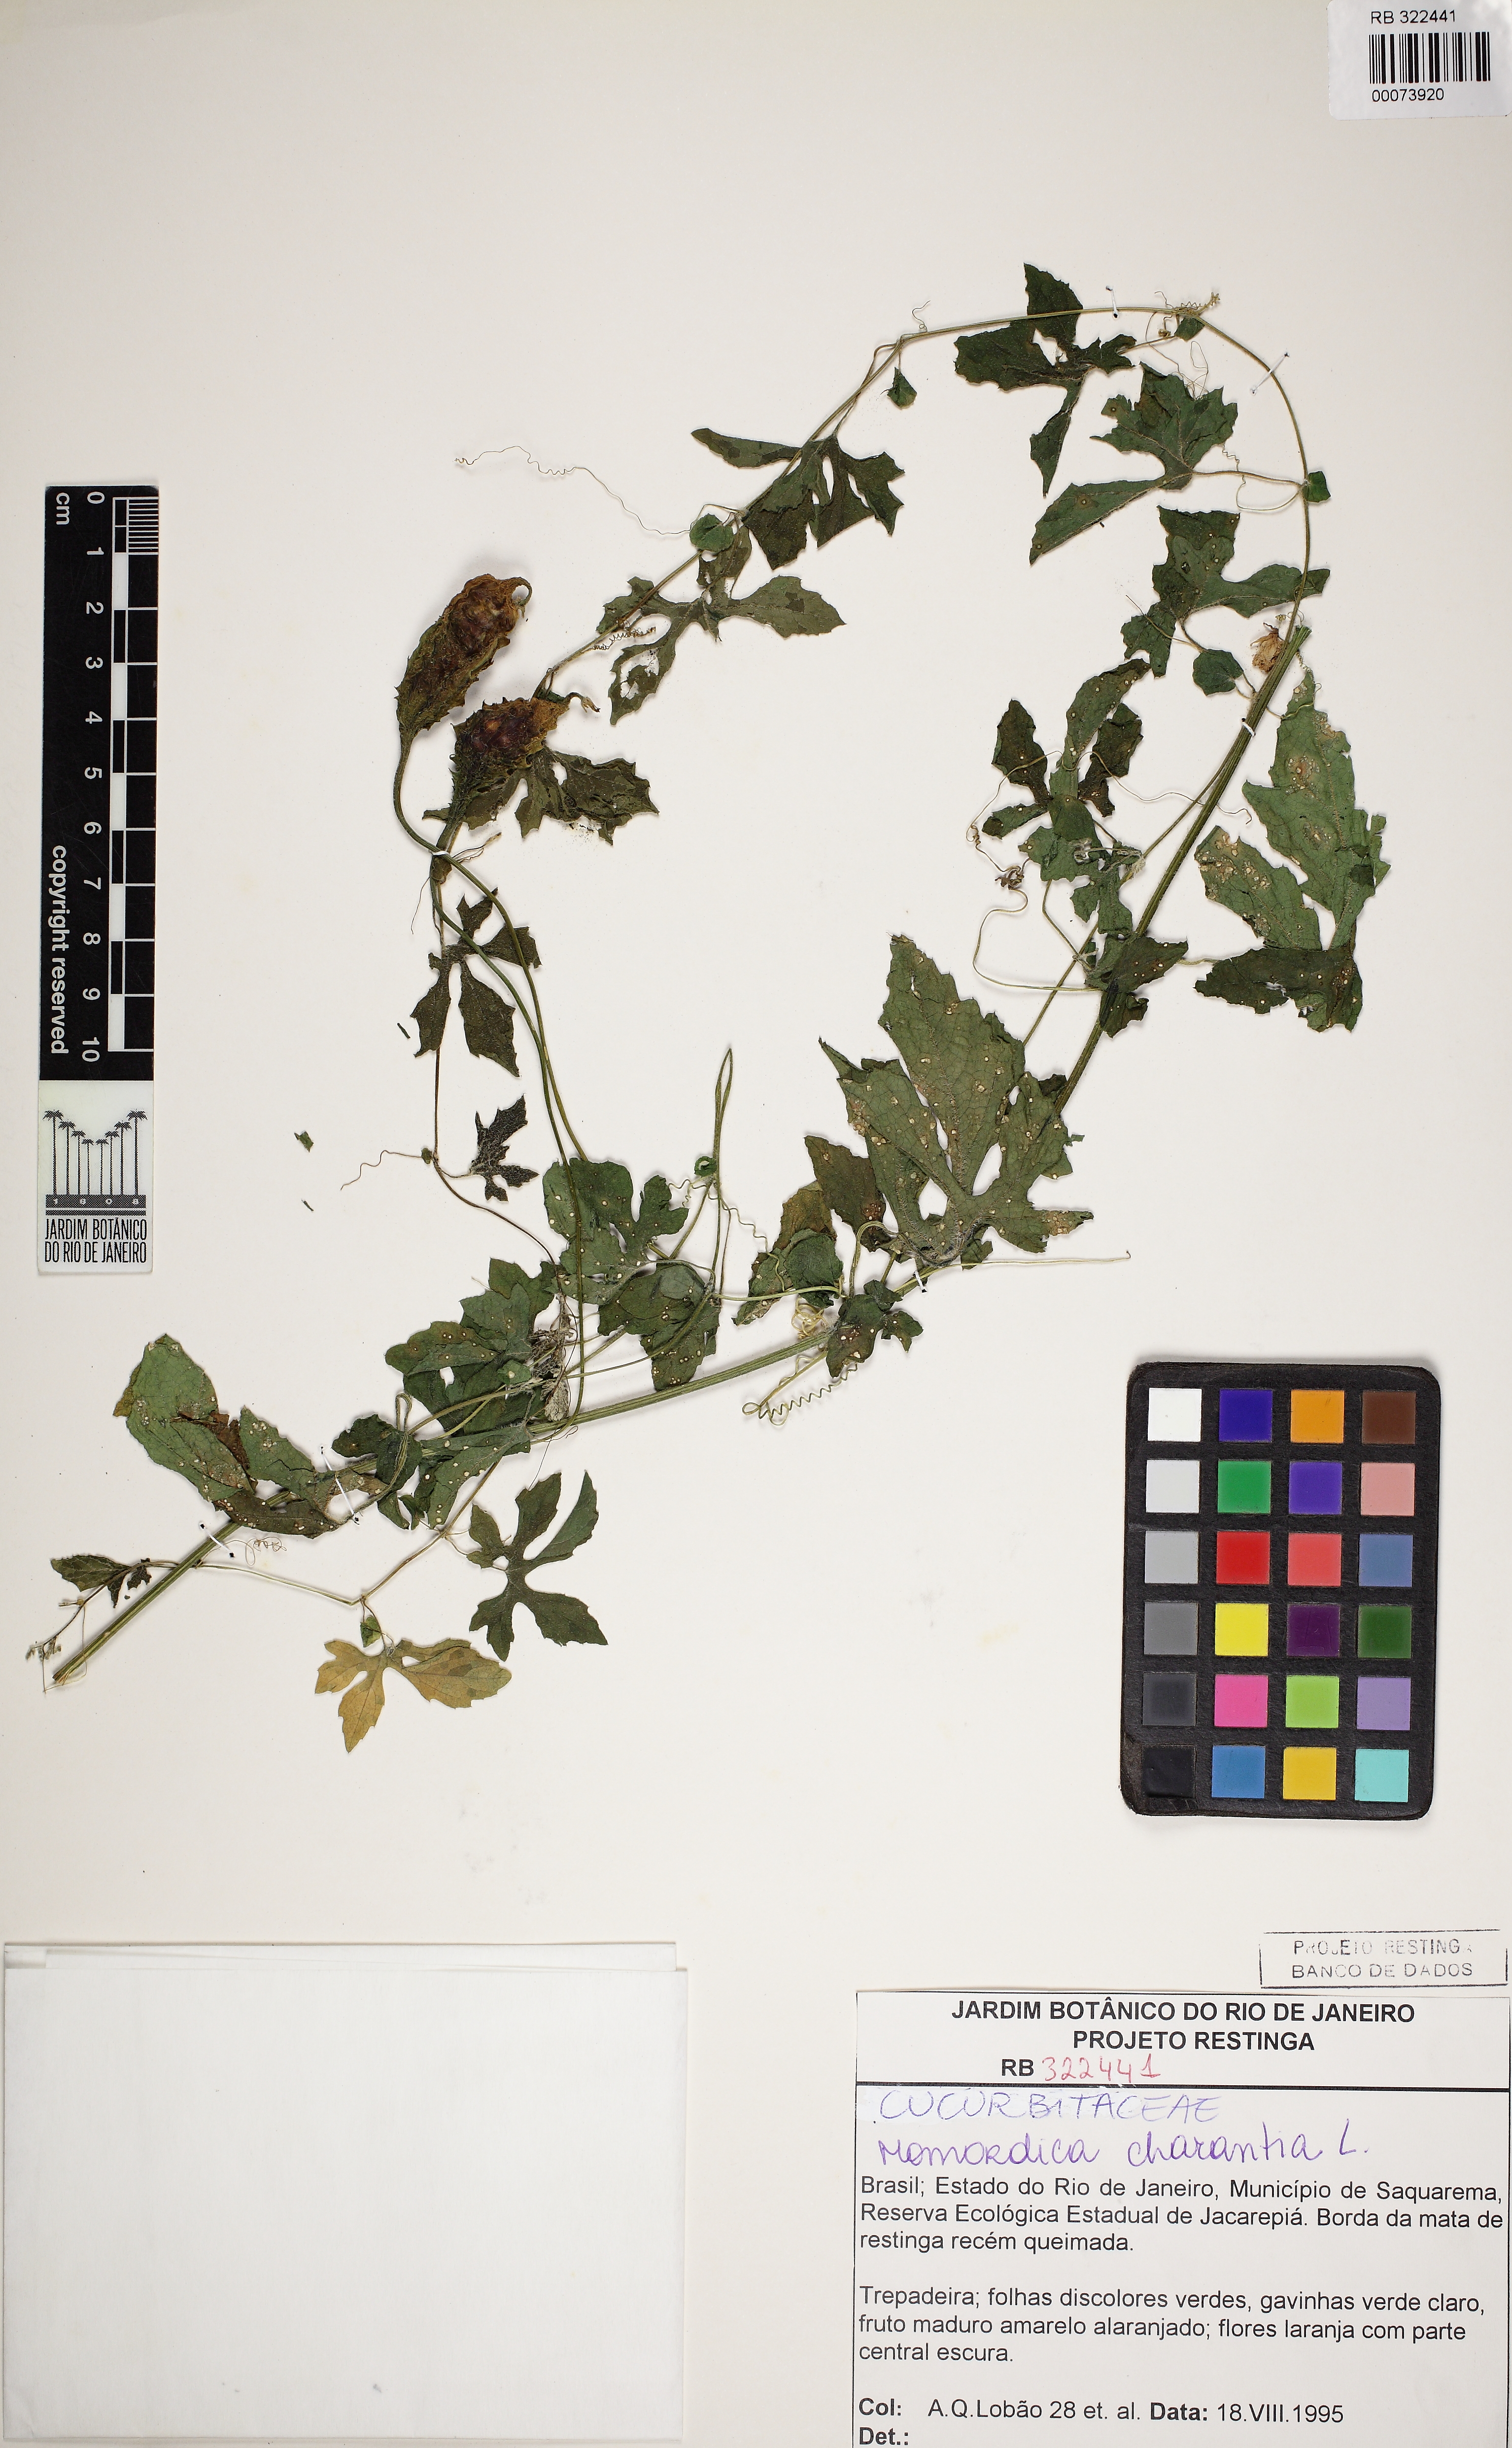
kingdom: Plantae
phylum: Tracheophyta
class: Magnoliopsida
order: Cucurbitales
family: Cucurbitaceae
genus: Momordica
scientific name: Momordica charantia
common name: Balsampear
